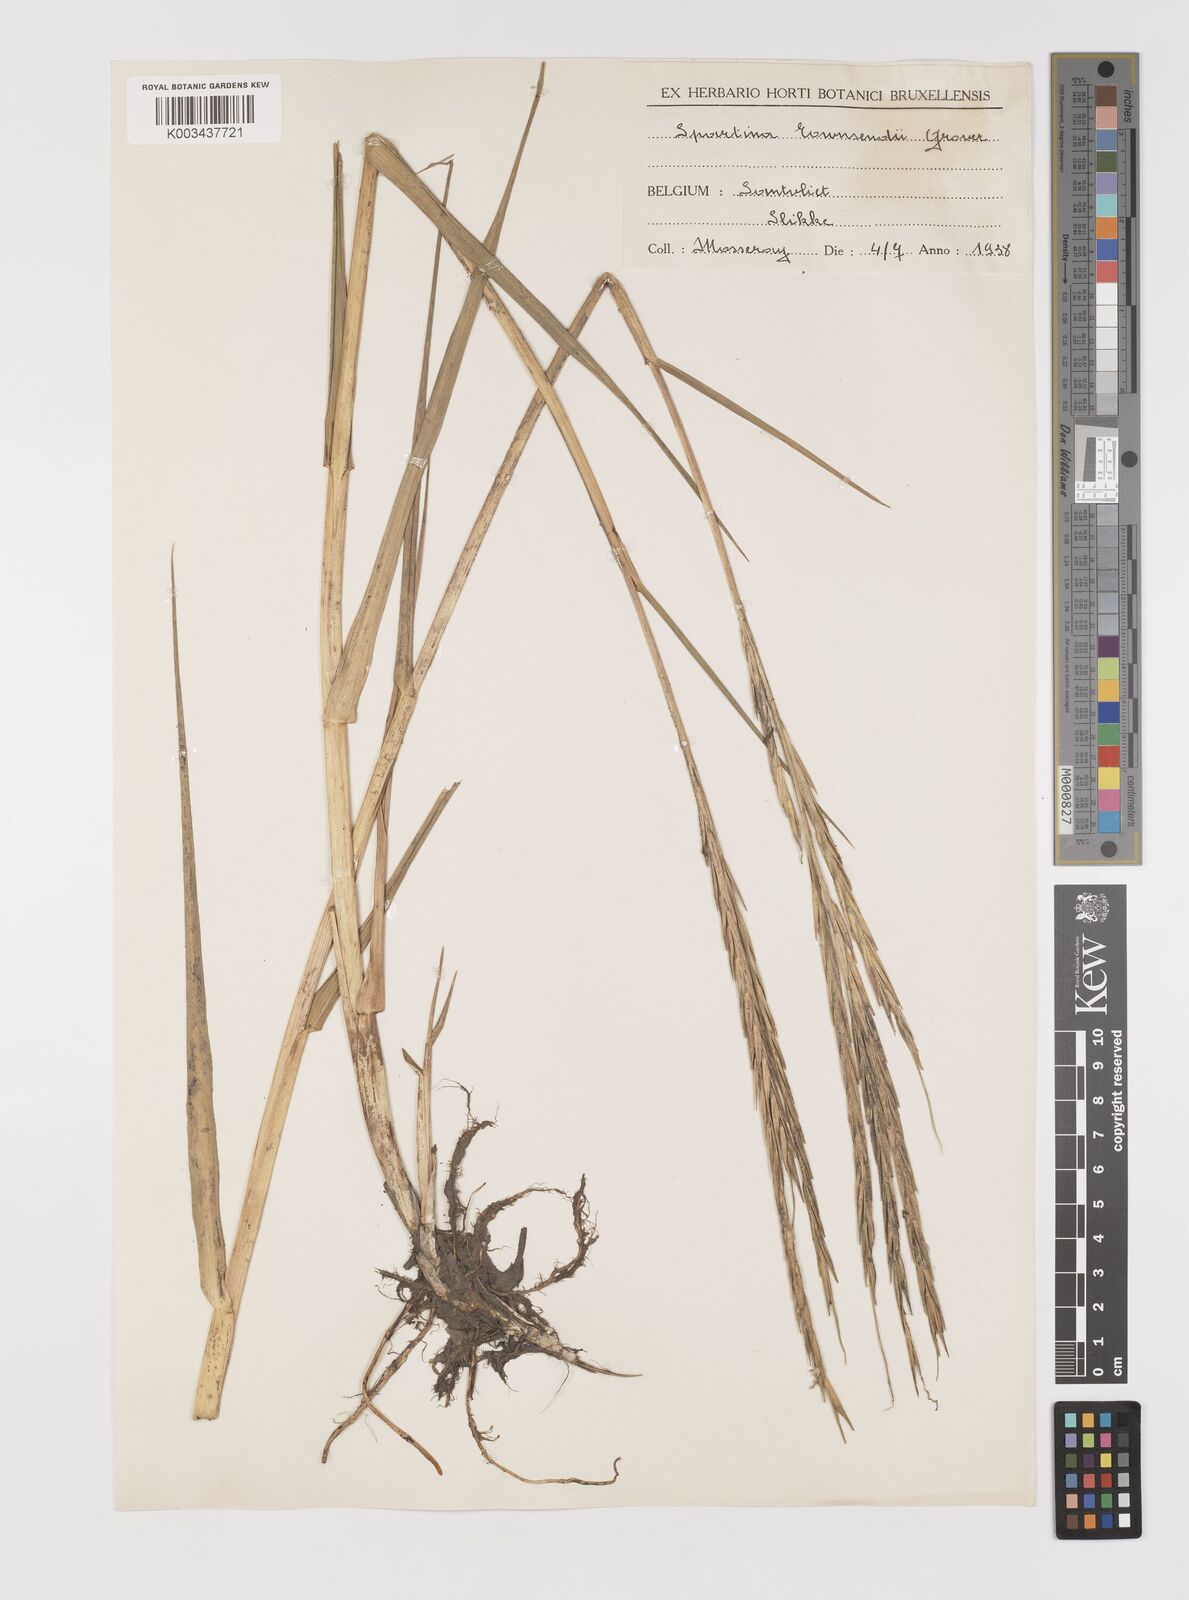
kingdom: Plantae
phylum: Tracheophyta
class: Liliopsida
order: Poales
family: Poaceae
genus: Sporobolus
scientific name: Sporobolus anglicus
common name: English cordgrass
